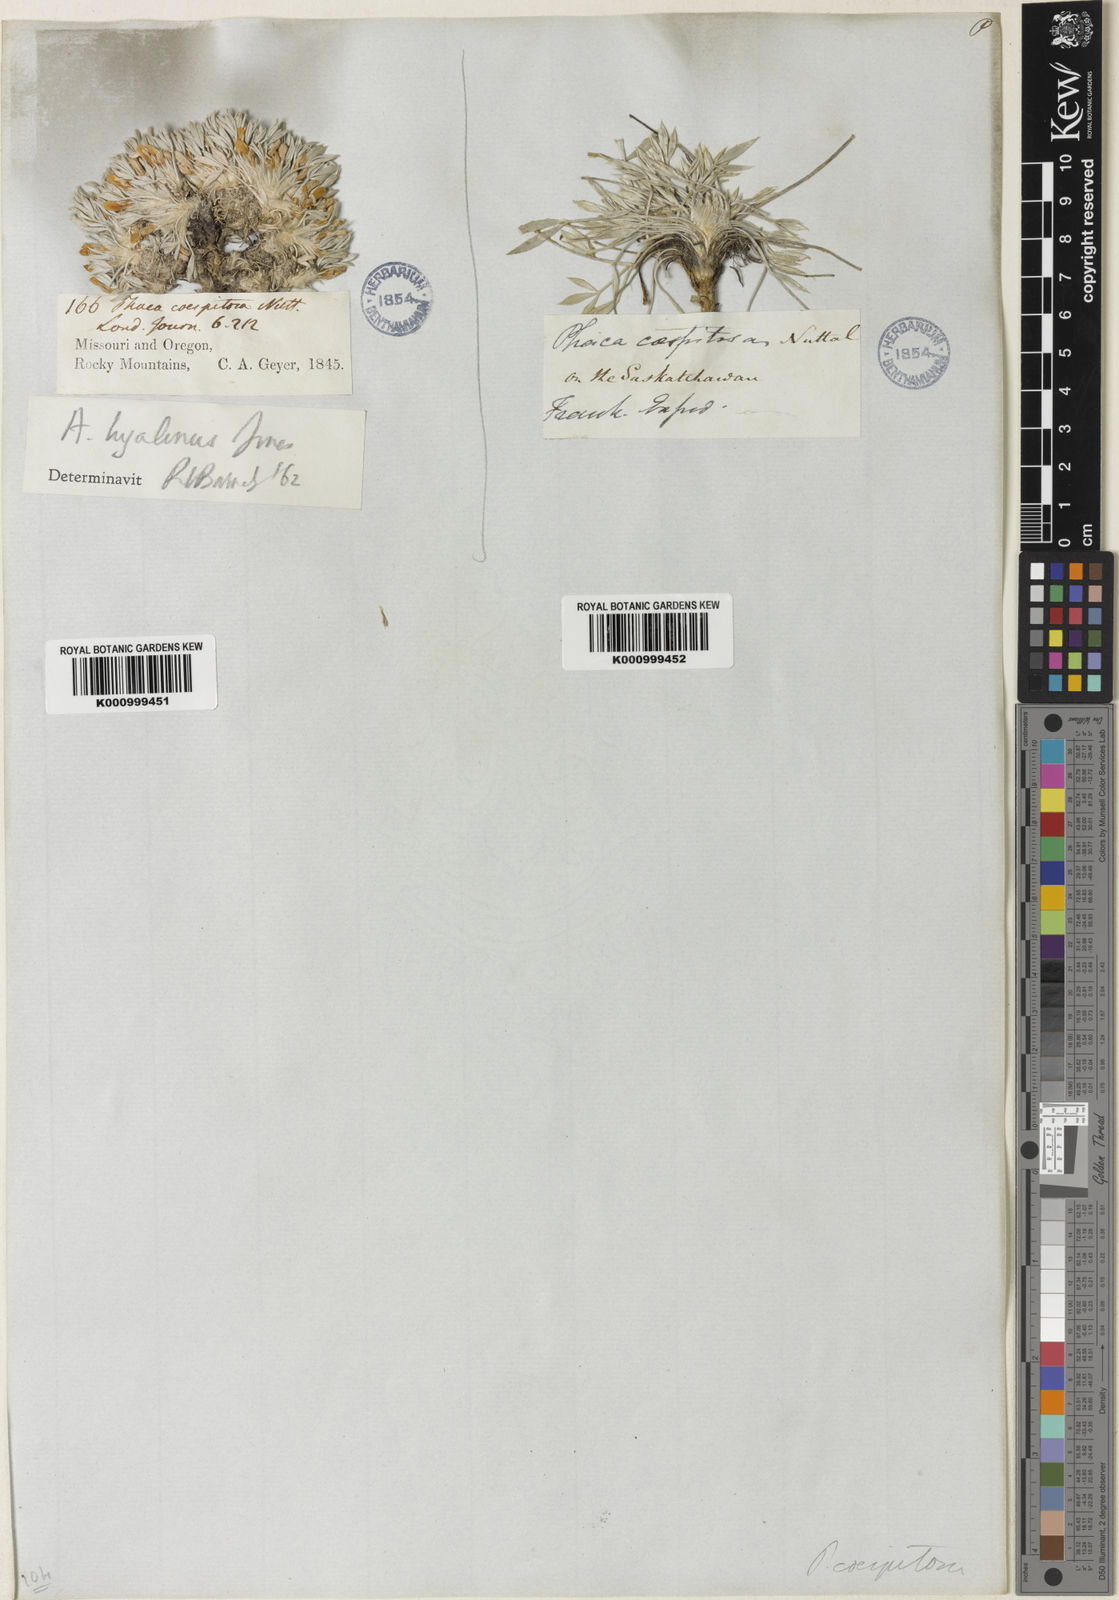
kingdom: Plantae
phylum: Tracheophyta
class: Magnoliopsida
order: Fabales
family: Fabaceae
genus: Oxytropis
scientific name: Oxytropis caespitosa
